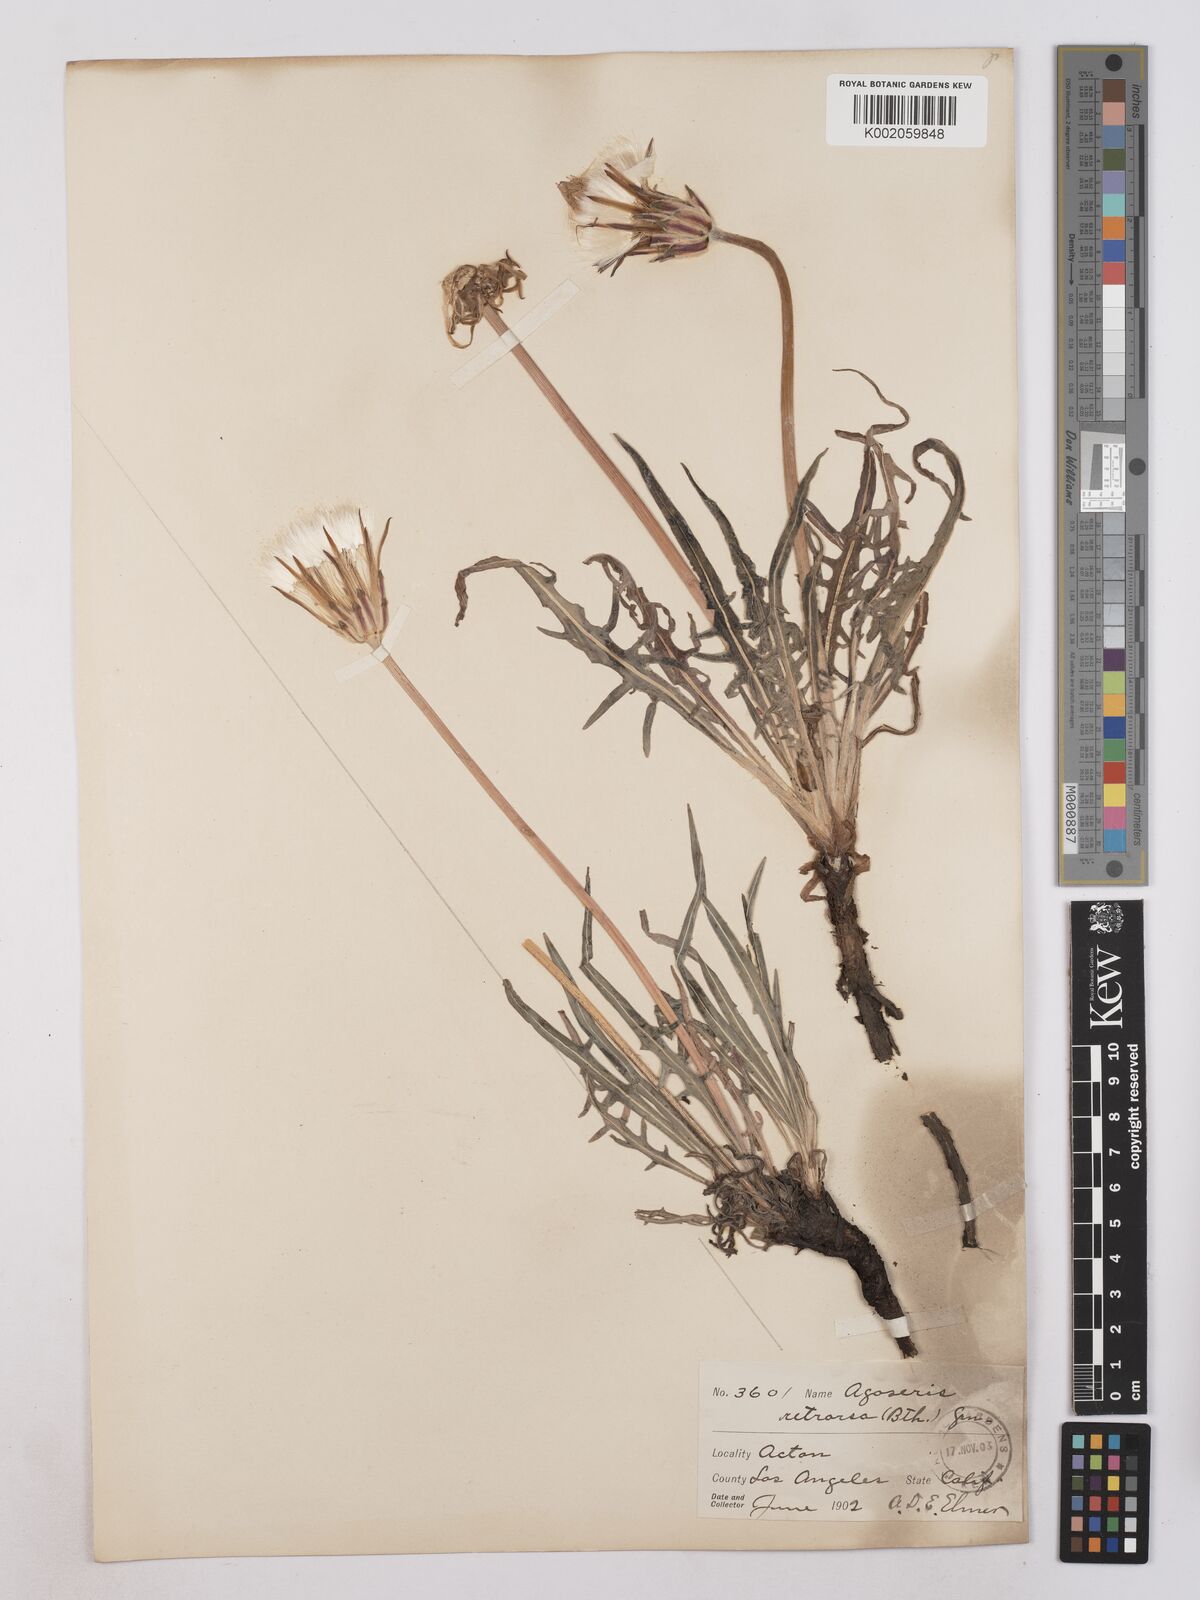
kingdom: Plantae
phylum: Tracheophyta
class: Magnoliopsida
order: Asterales
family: Asteraceae
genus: Agoseris
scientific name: Agoseris retrorsa
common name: Spearleaf agoseris
